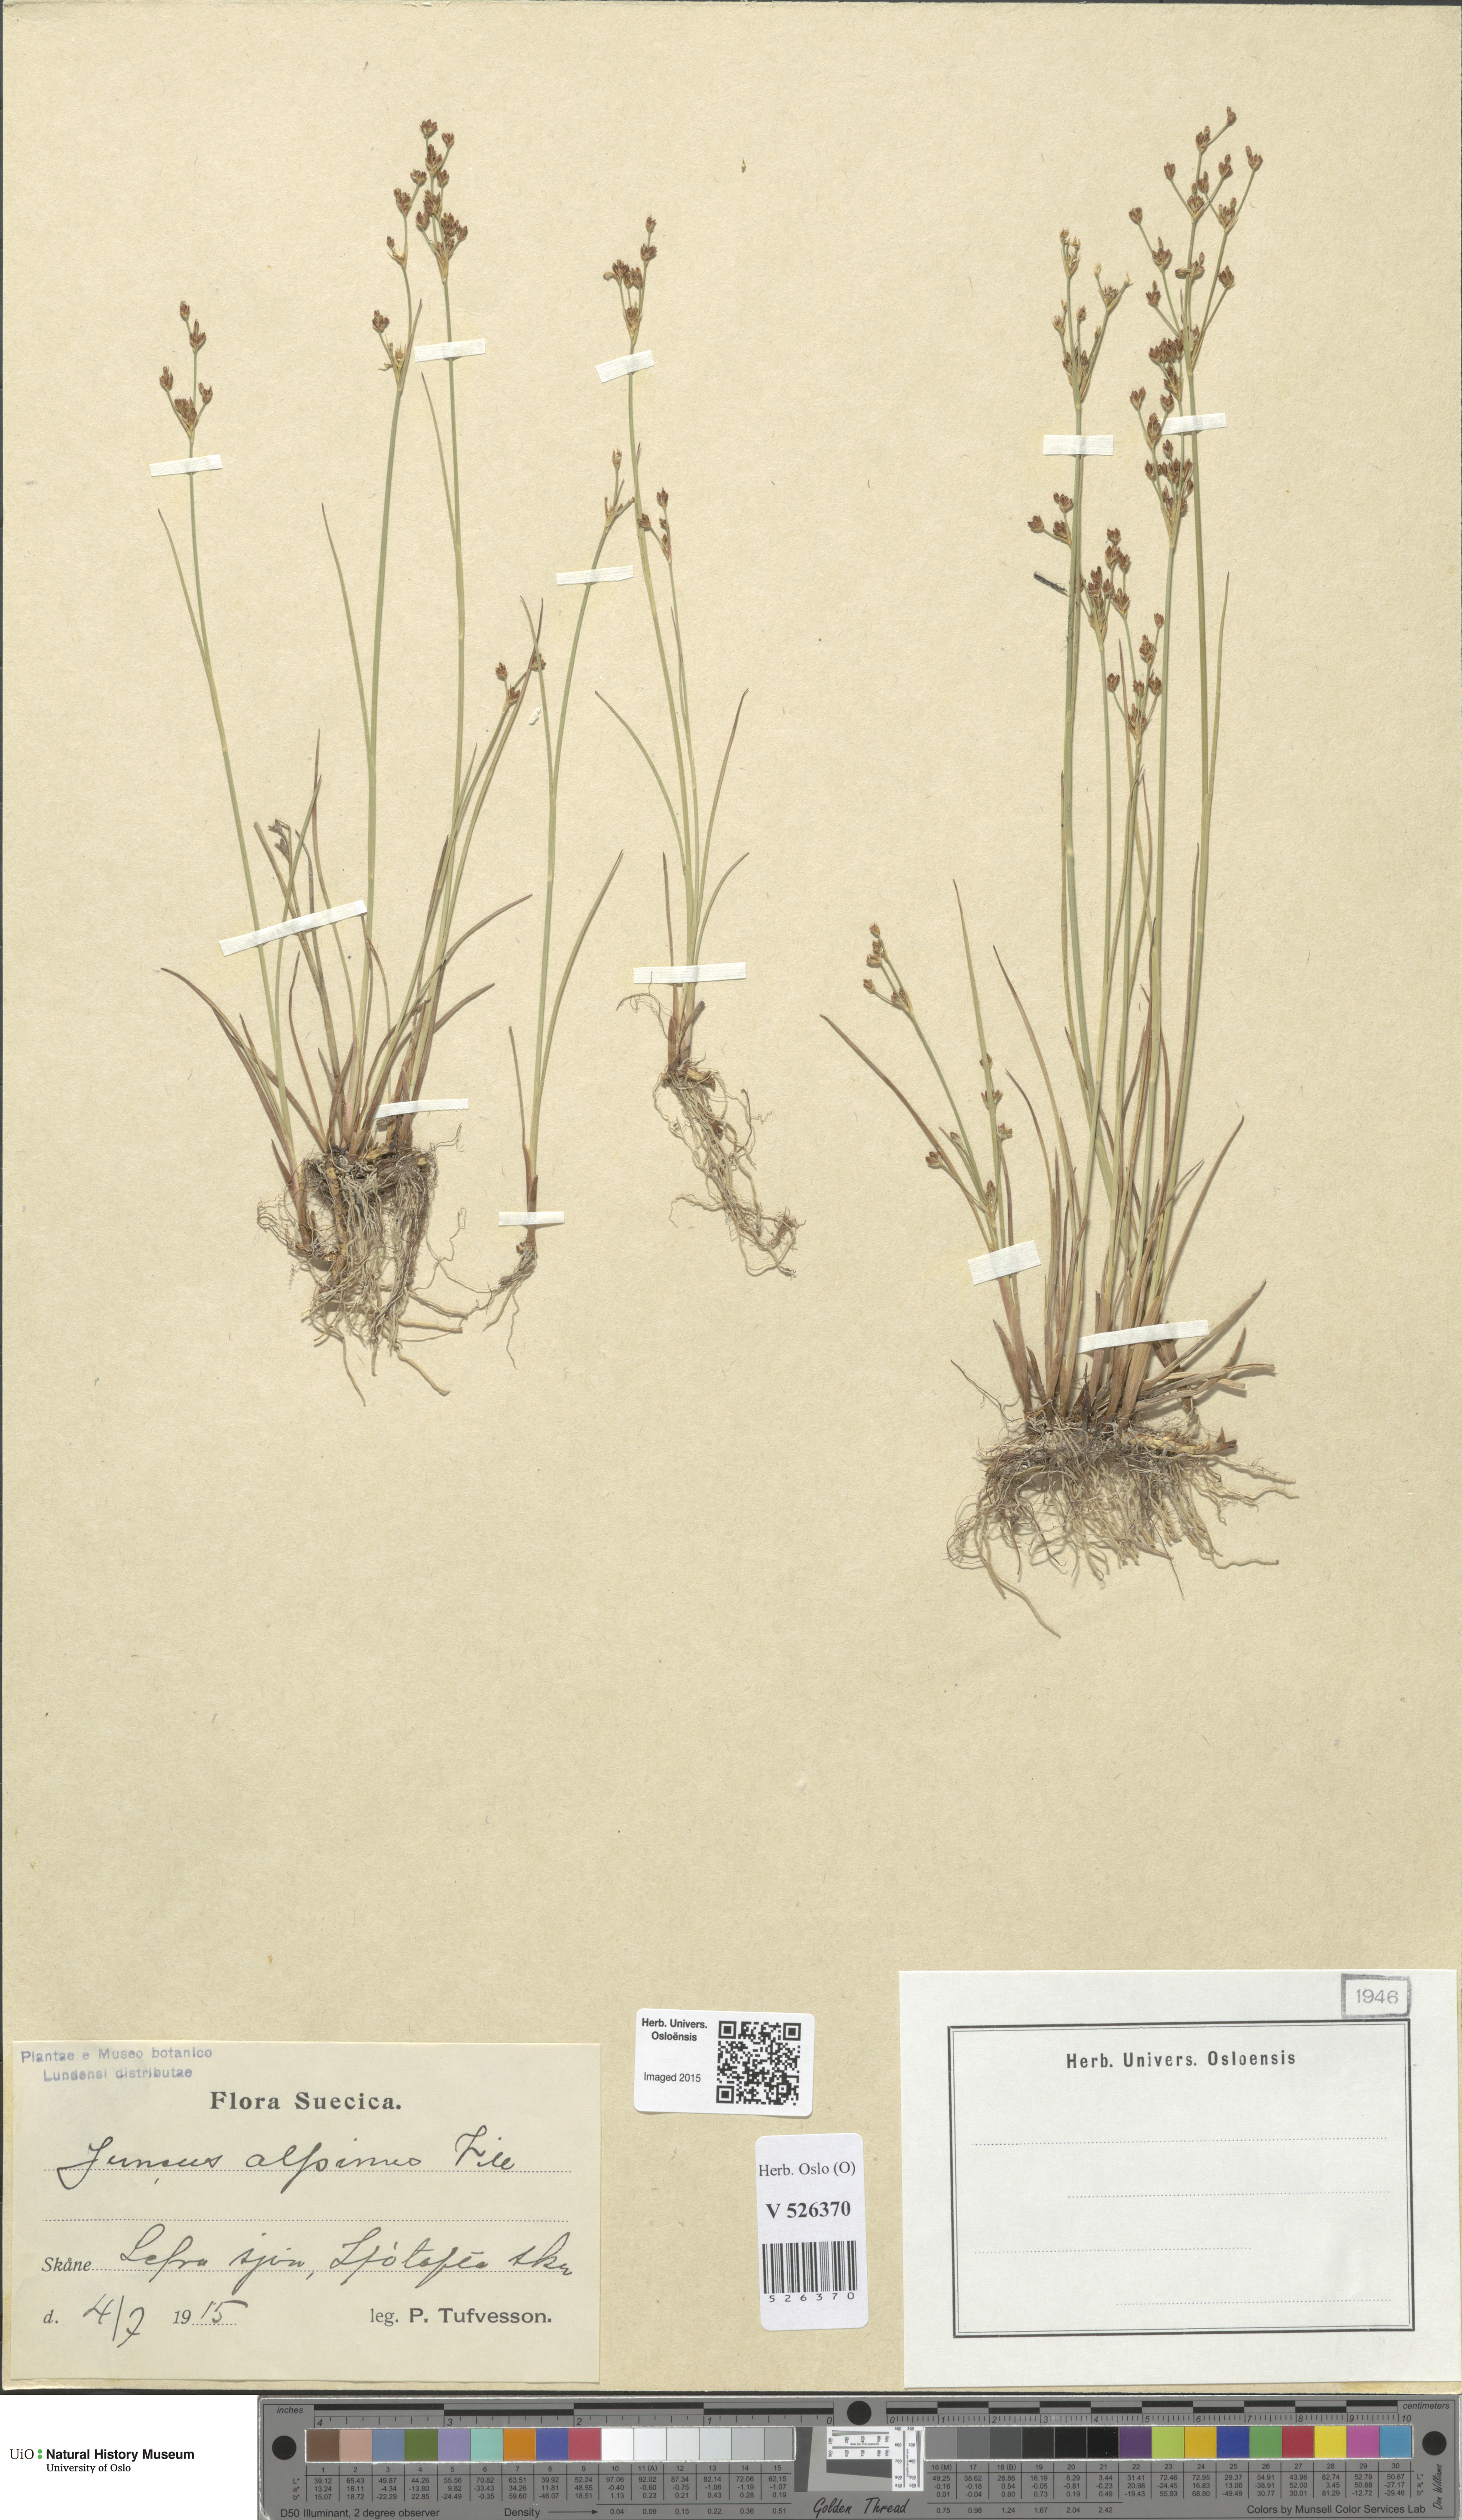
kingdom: Plantae
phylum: Tracheophyta
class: Liliopsida
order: Poales
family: Juncaceae
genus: Juncus
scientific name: Juncus alpinoarticulatus
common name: Alpine rush
